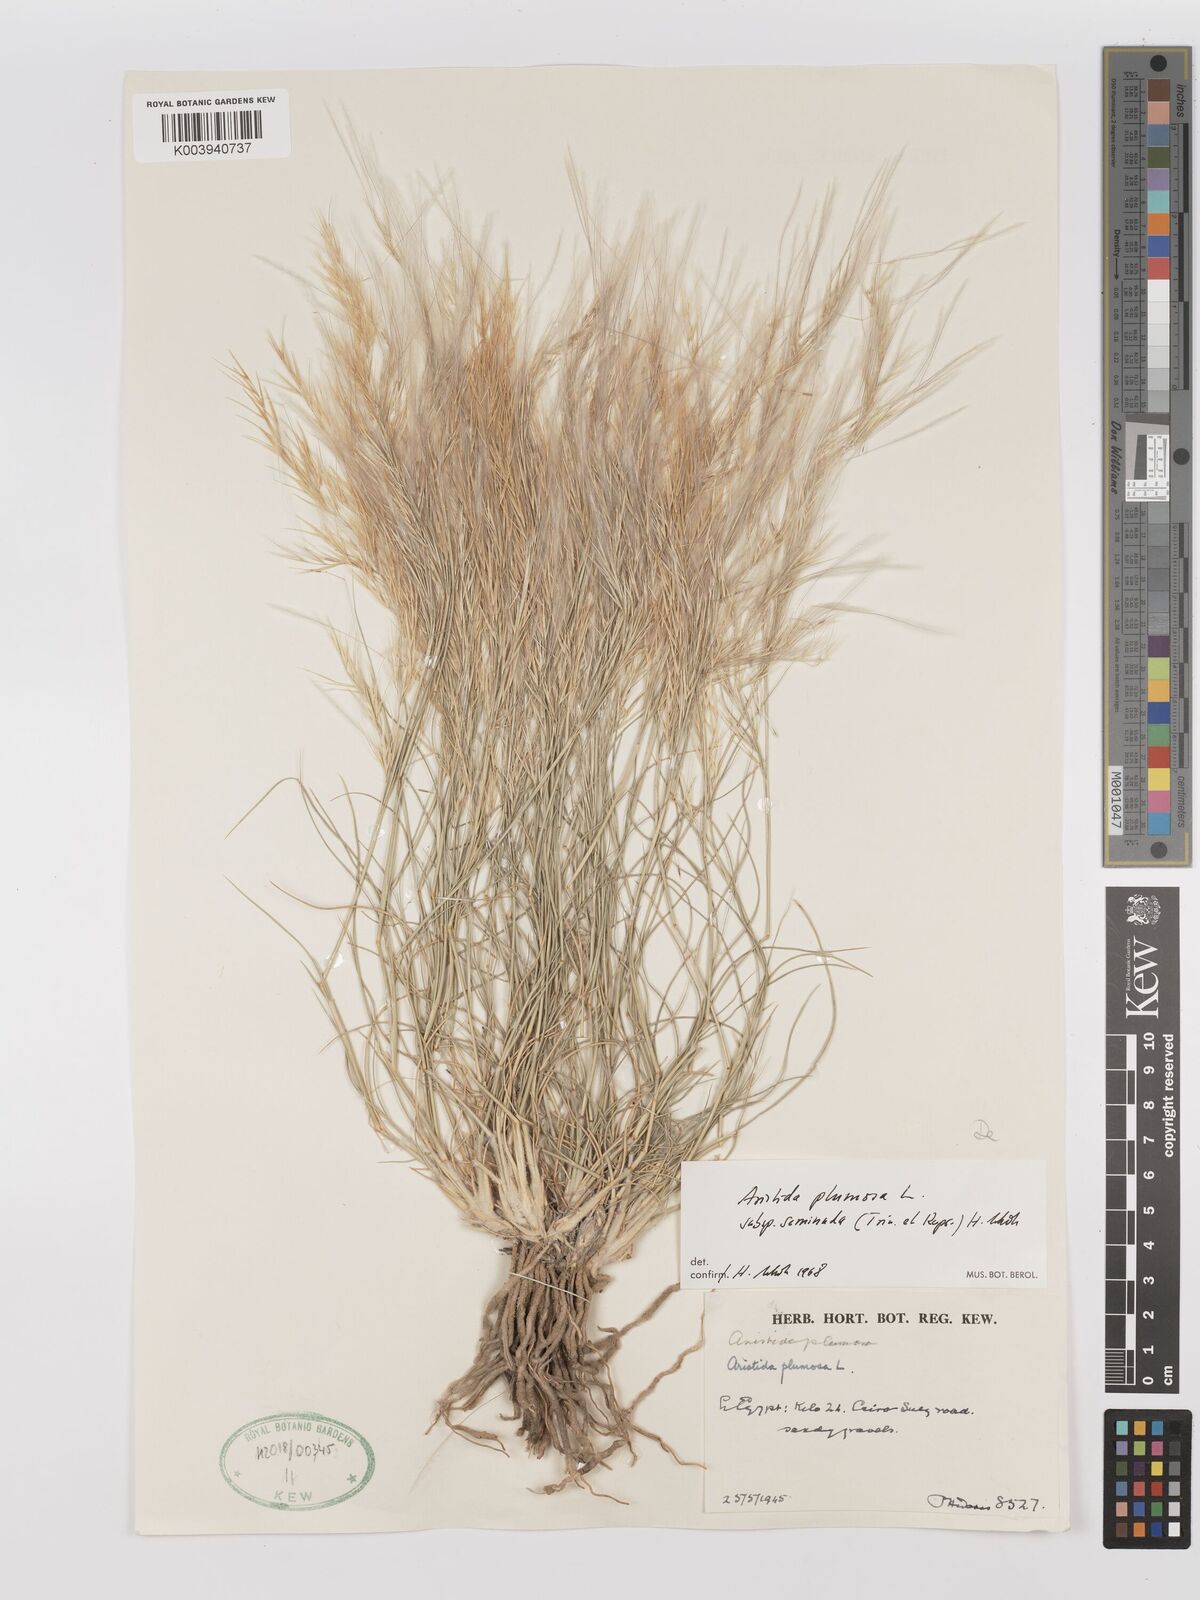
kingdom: Plantae
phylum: Tracheophyta
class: Liliopsida
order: Poales
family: Poaceae
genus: Stipagrostis
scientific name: Stipagrostis plumosa
